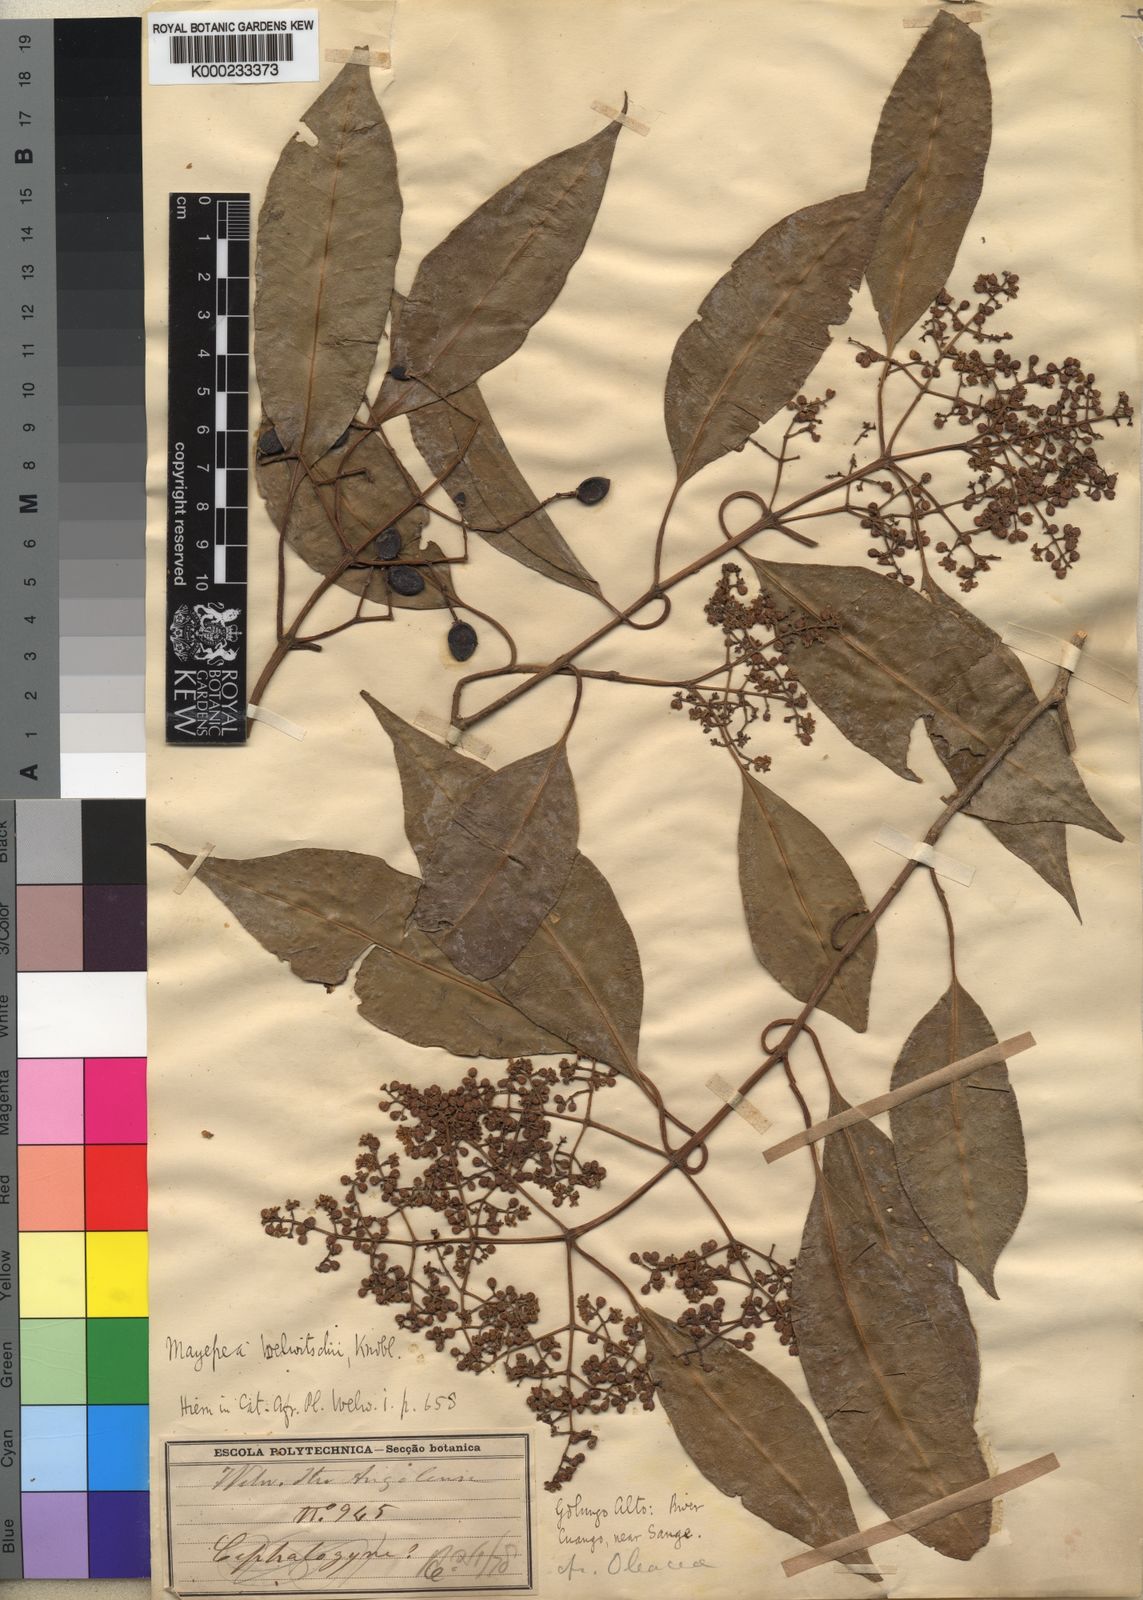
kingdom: Plantae
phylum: Tracheophyta
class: Magnoliopsida
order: Lamiales
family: Oleaceae
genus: Olea
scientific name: Olea welwitschii
